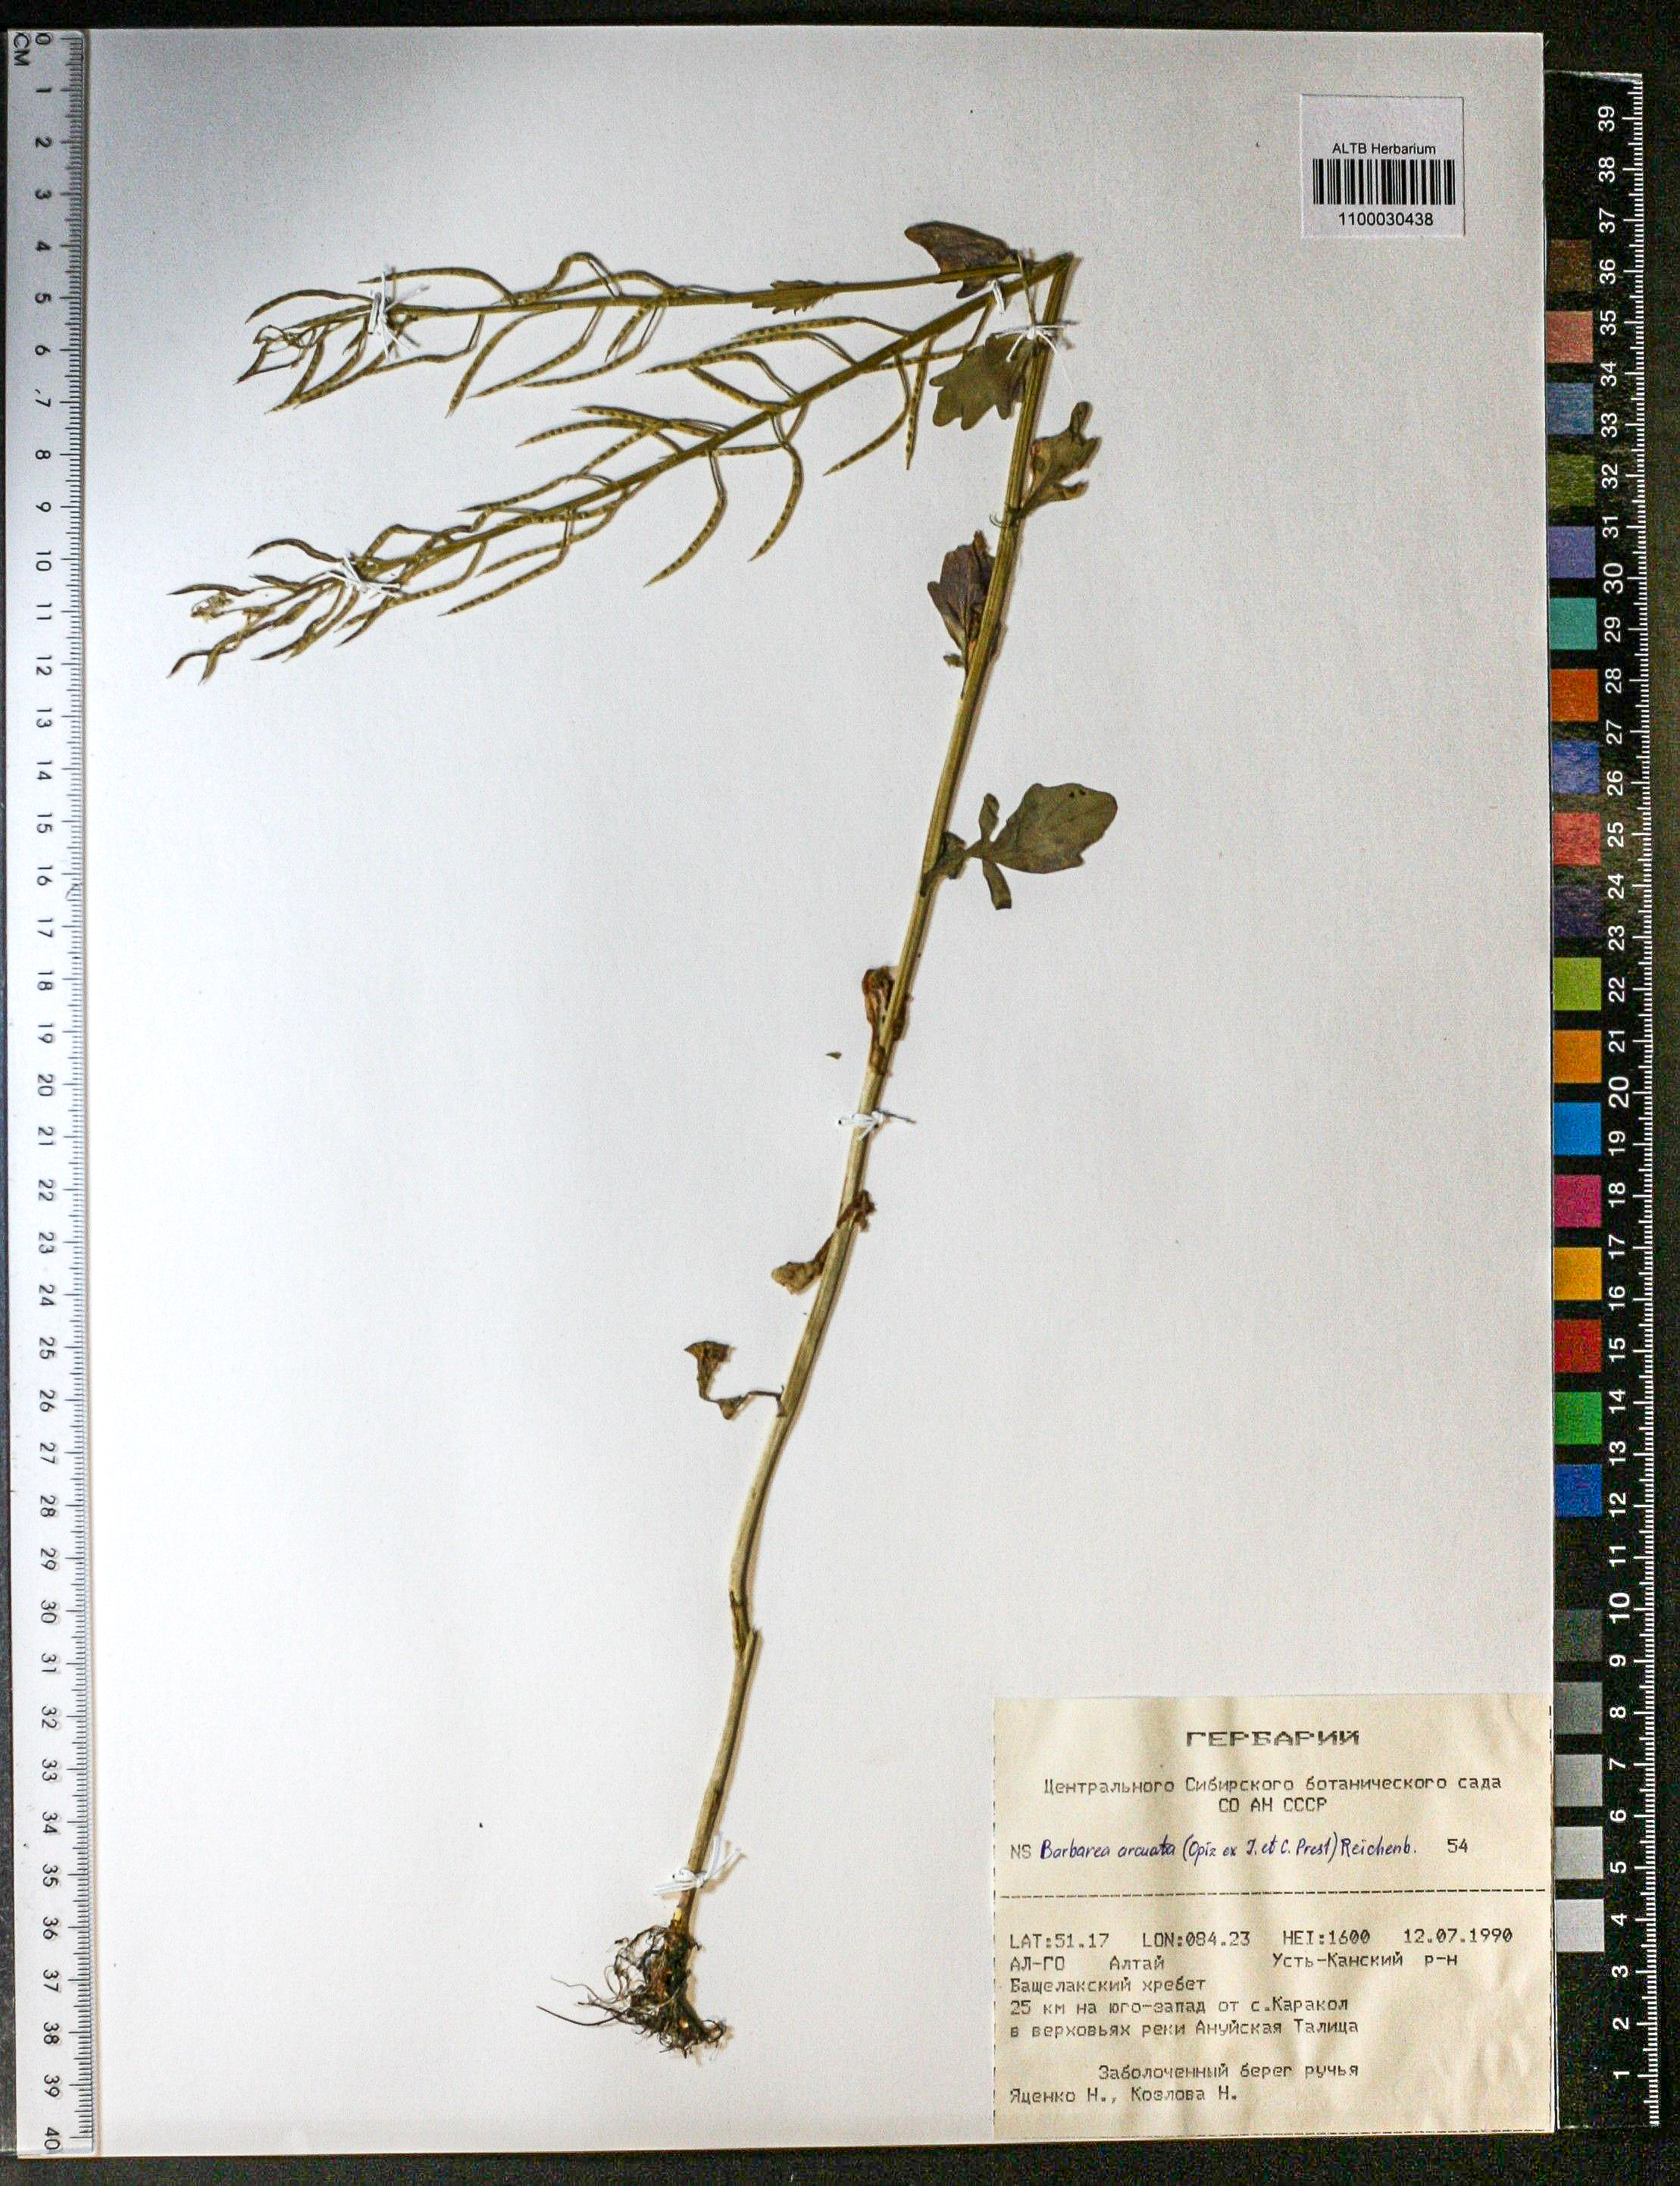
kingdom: Plantae
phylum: Tracheophyta
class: Magnoliopsida
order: Brassicales
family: Brassicaceae
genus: Barbarea
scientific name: Barbarea vulgaris
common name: Cressy-greens
